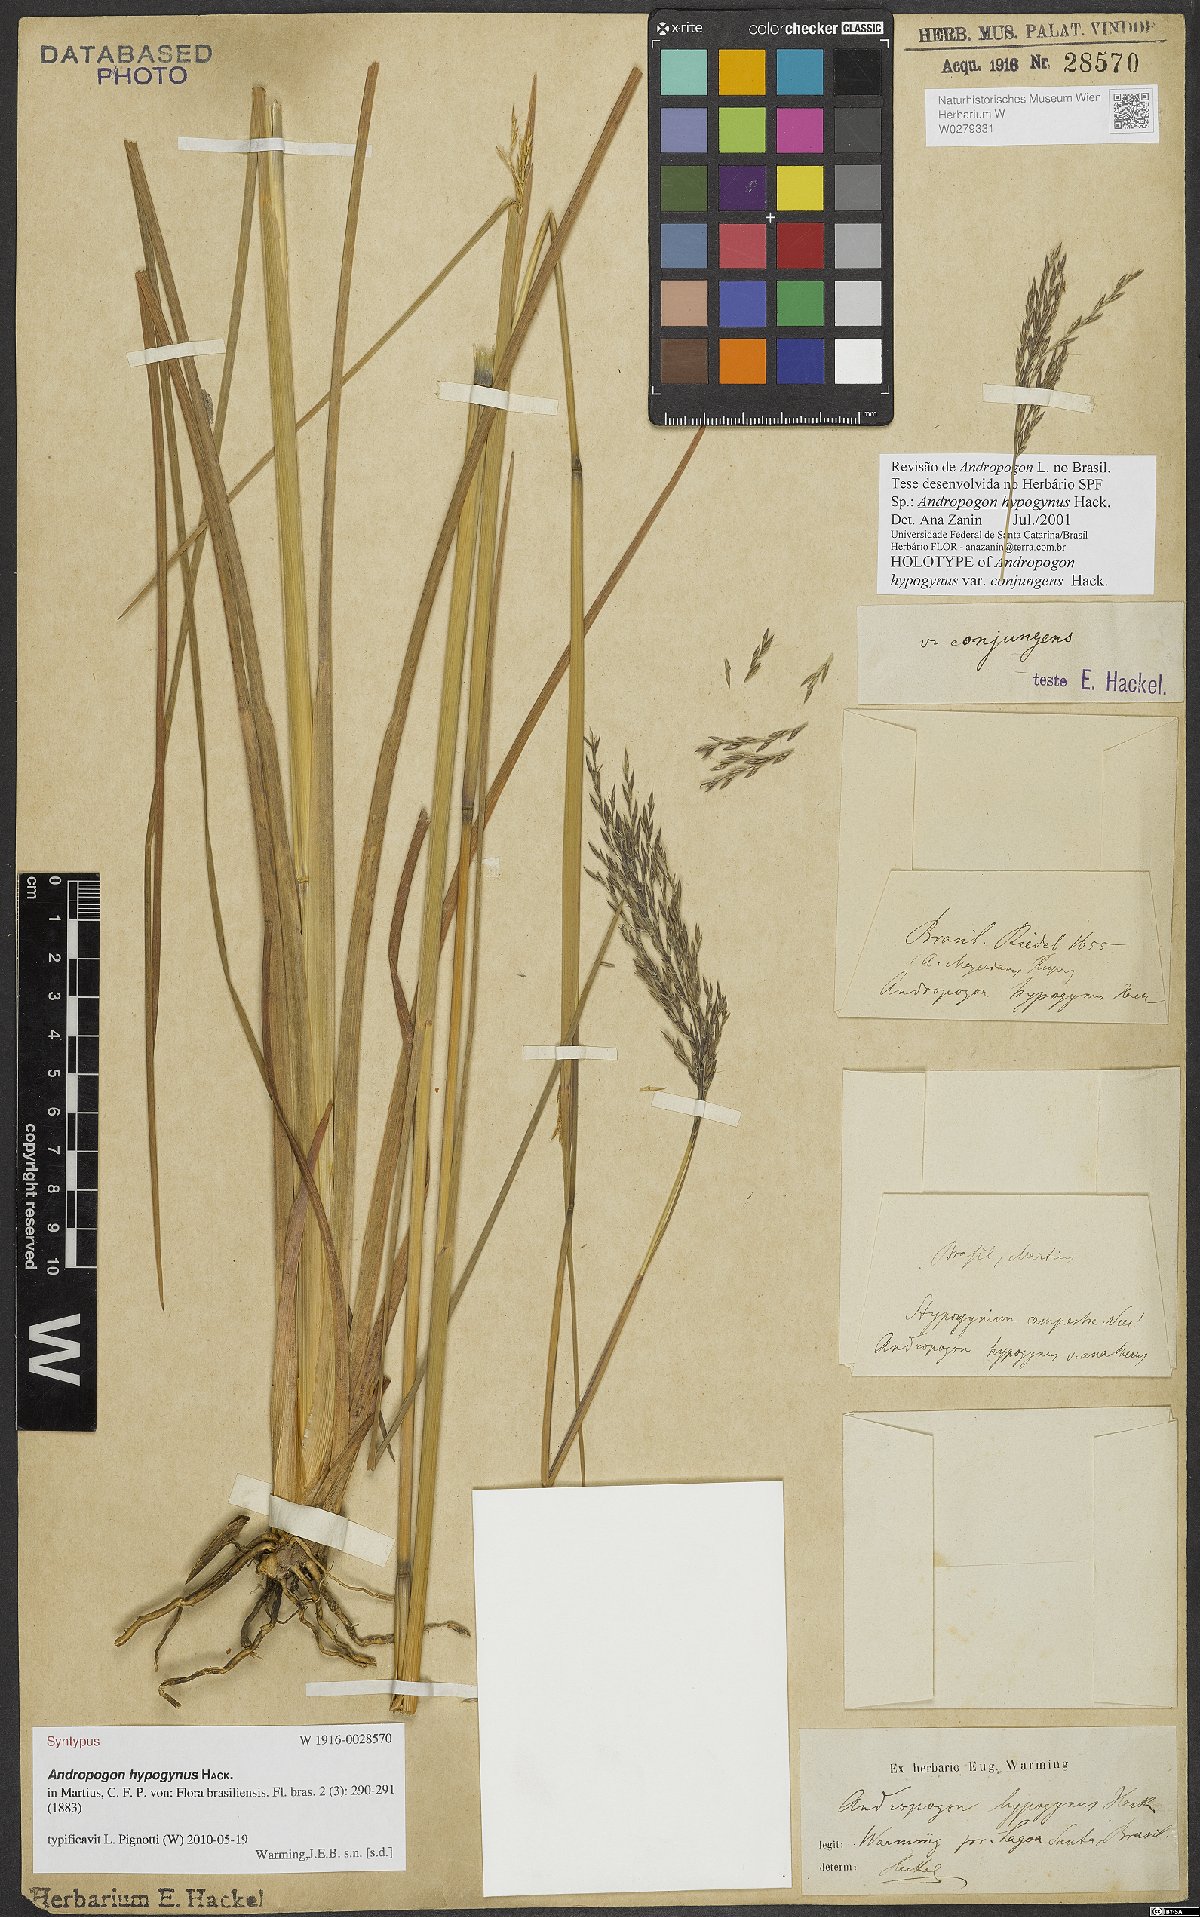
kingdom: Plantae
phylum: Tracheophyta
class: Liliopsida
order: Poales
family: Poaceae
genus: Andropogon
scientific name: Andropogon hypogynus
